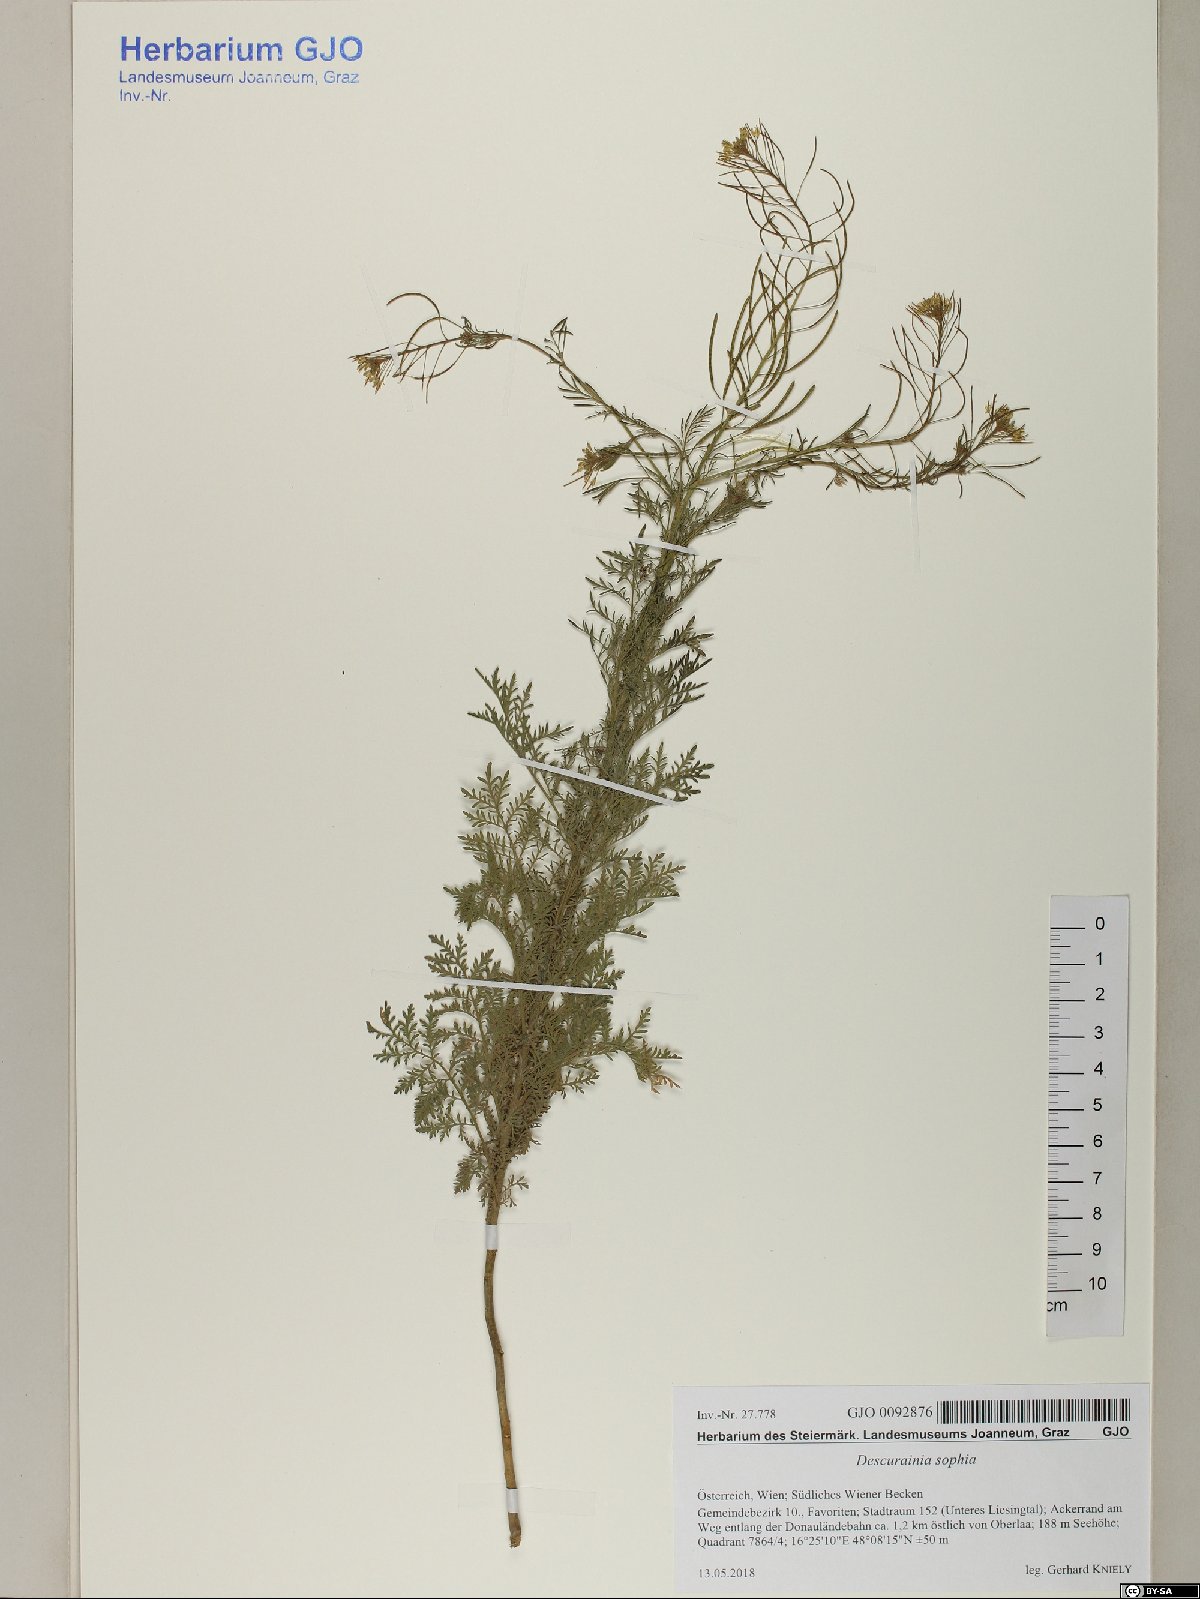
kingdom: Plantae
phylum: Tracheophyta
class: Magnoliopsida
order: Brassicales
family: Brassicaceae
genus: Descurainia
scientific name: Descurainia sophia
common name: Flixweed
